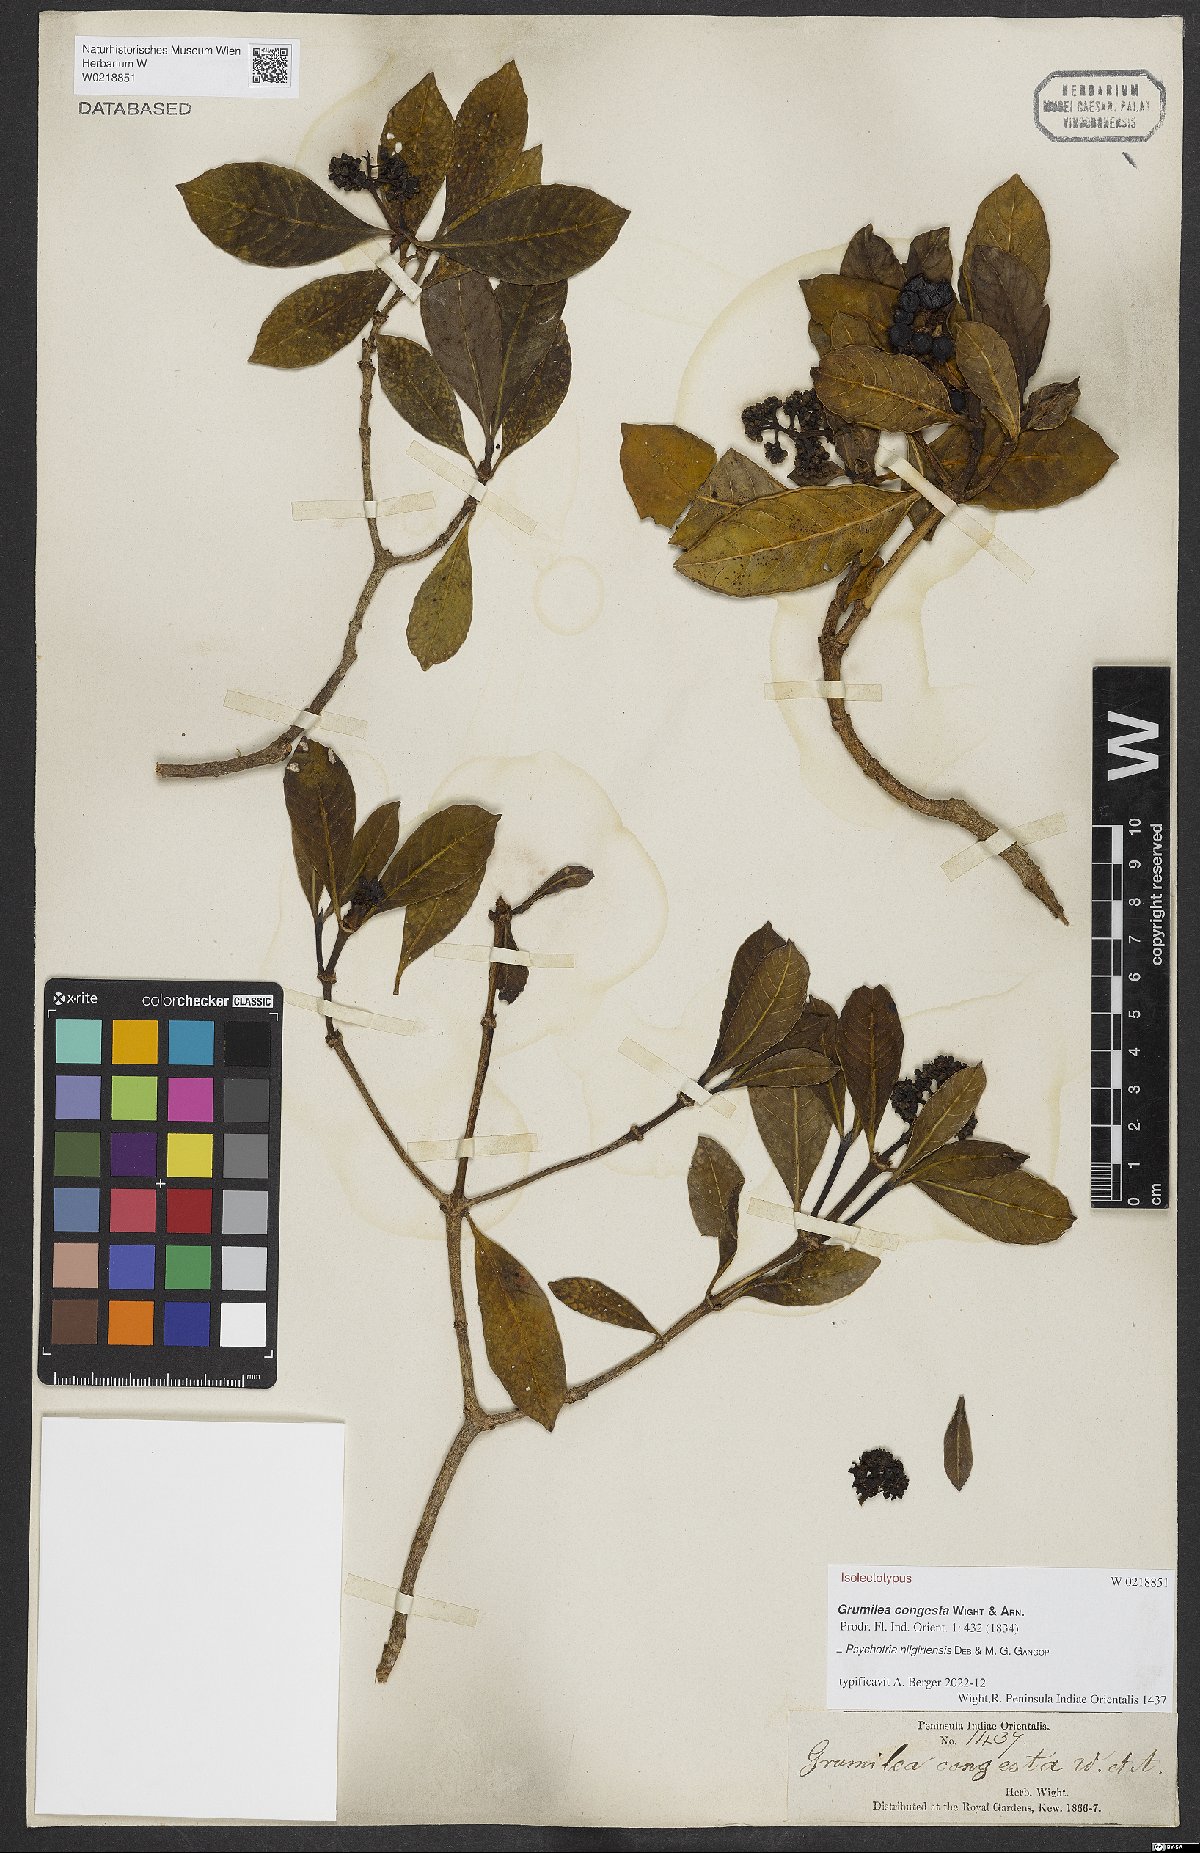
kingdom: Plantae
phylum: Tracheophyta
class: Magnoliopsida
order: Gentianales
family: Rubiaceae
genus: Psychotria
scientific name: Psychotria nilgiriensis
